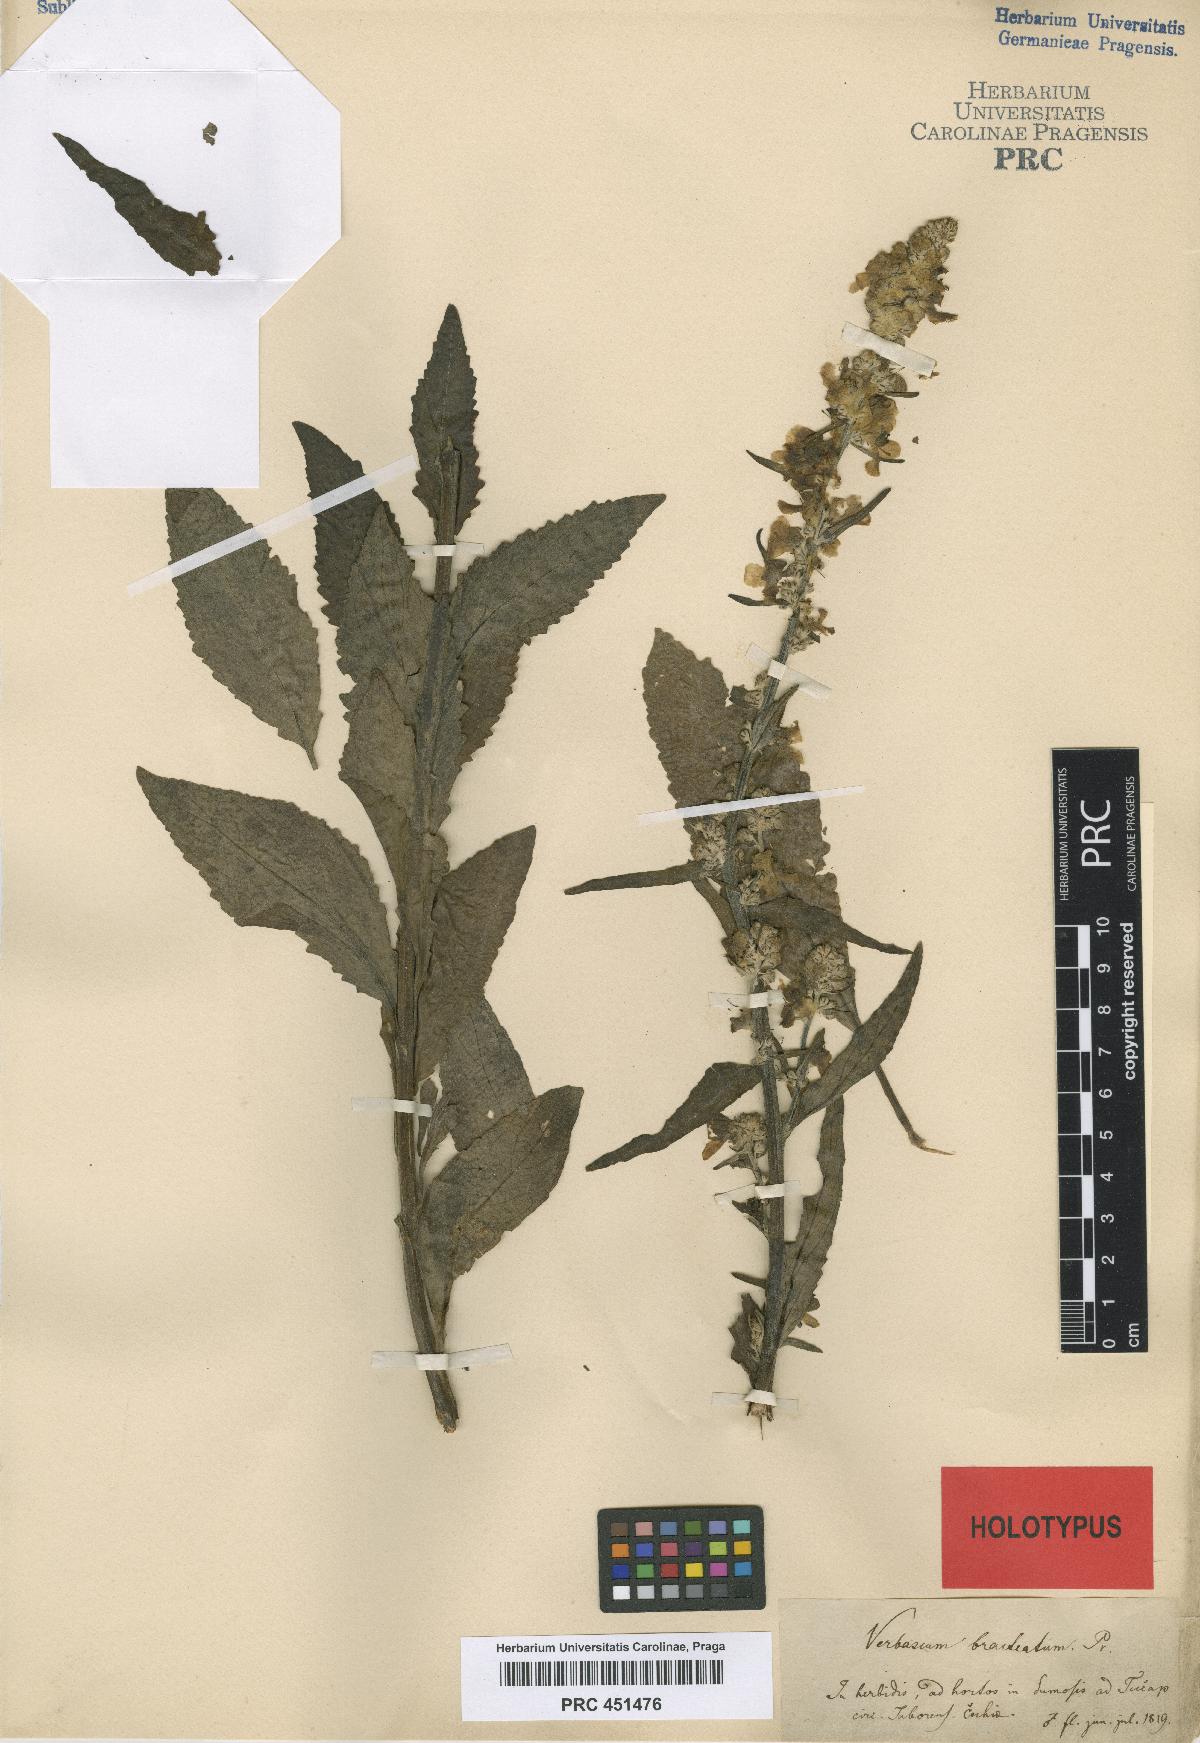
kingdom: Plantae
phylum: Tracheophyta
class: Magnoliopsida
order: Lamiales
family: Scrophulariaceae
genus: Verbascum
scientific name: Verbascum lychnitis
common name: White mullein
